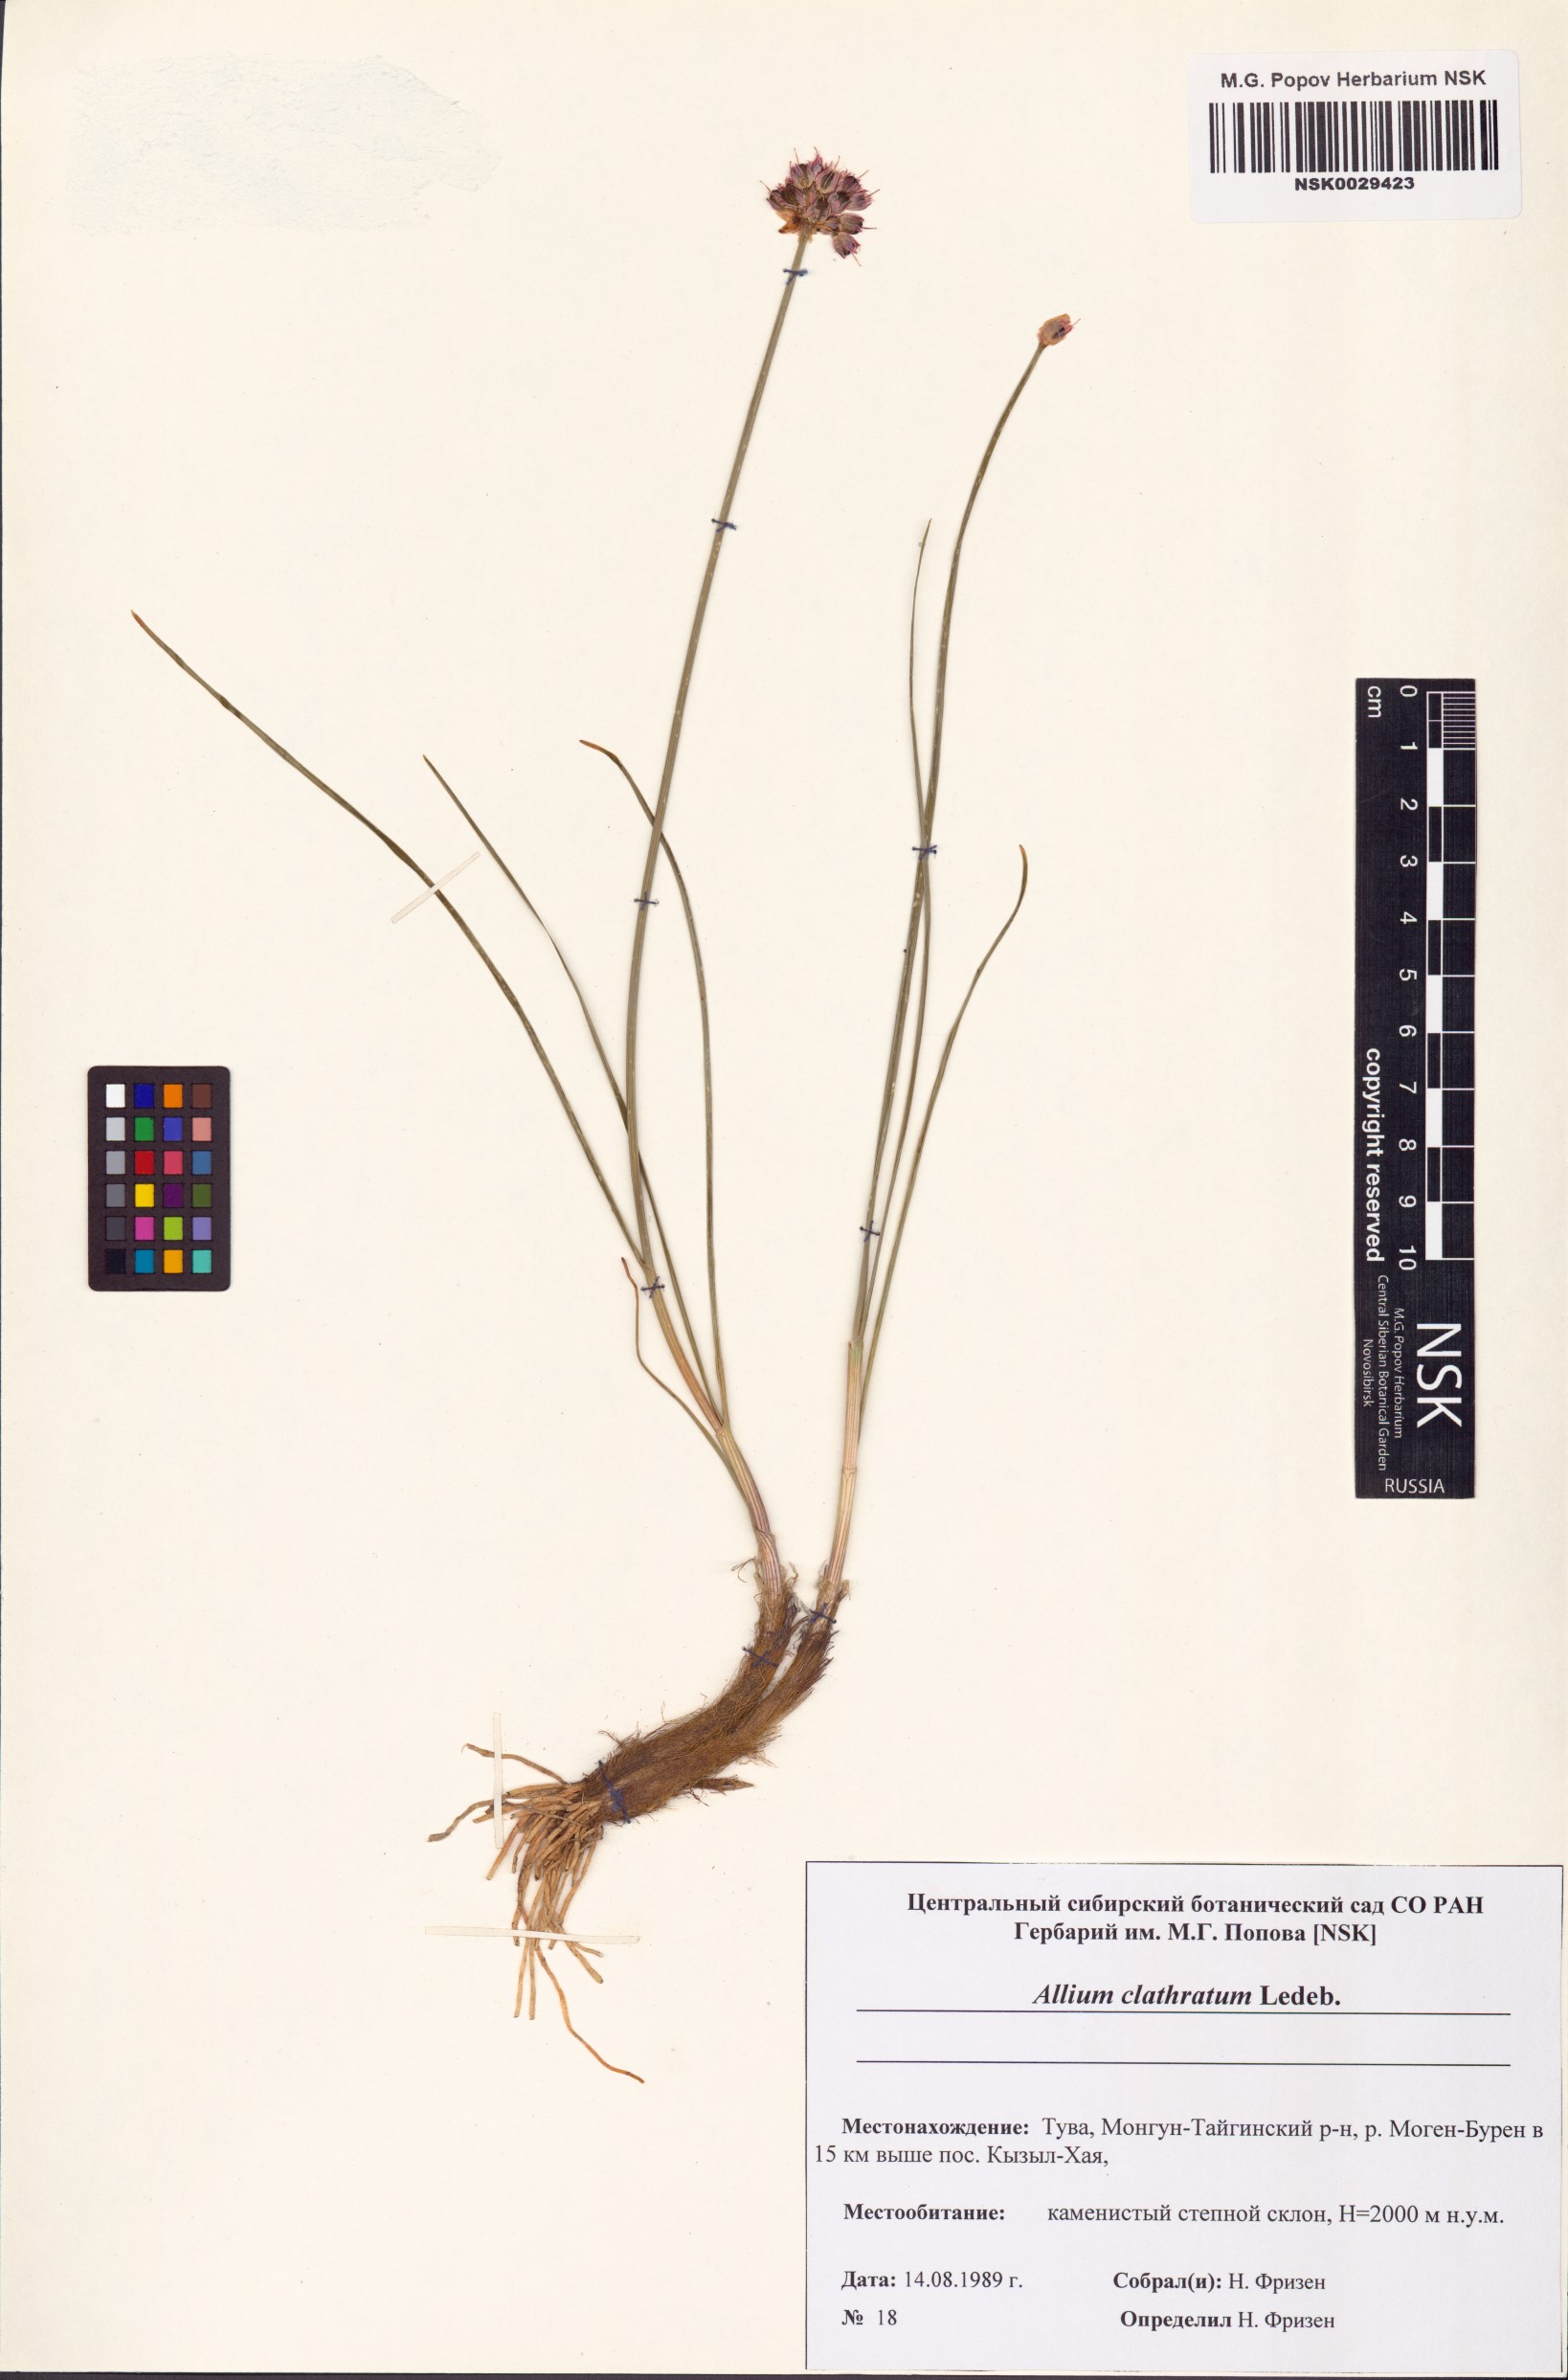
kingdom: Plantae
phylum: Tracheophyta
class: Liliopsida
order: Asparagales
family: Amaryllidaceae
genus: Allium
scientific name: Allium clathratum
